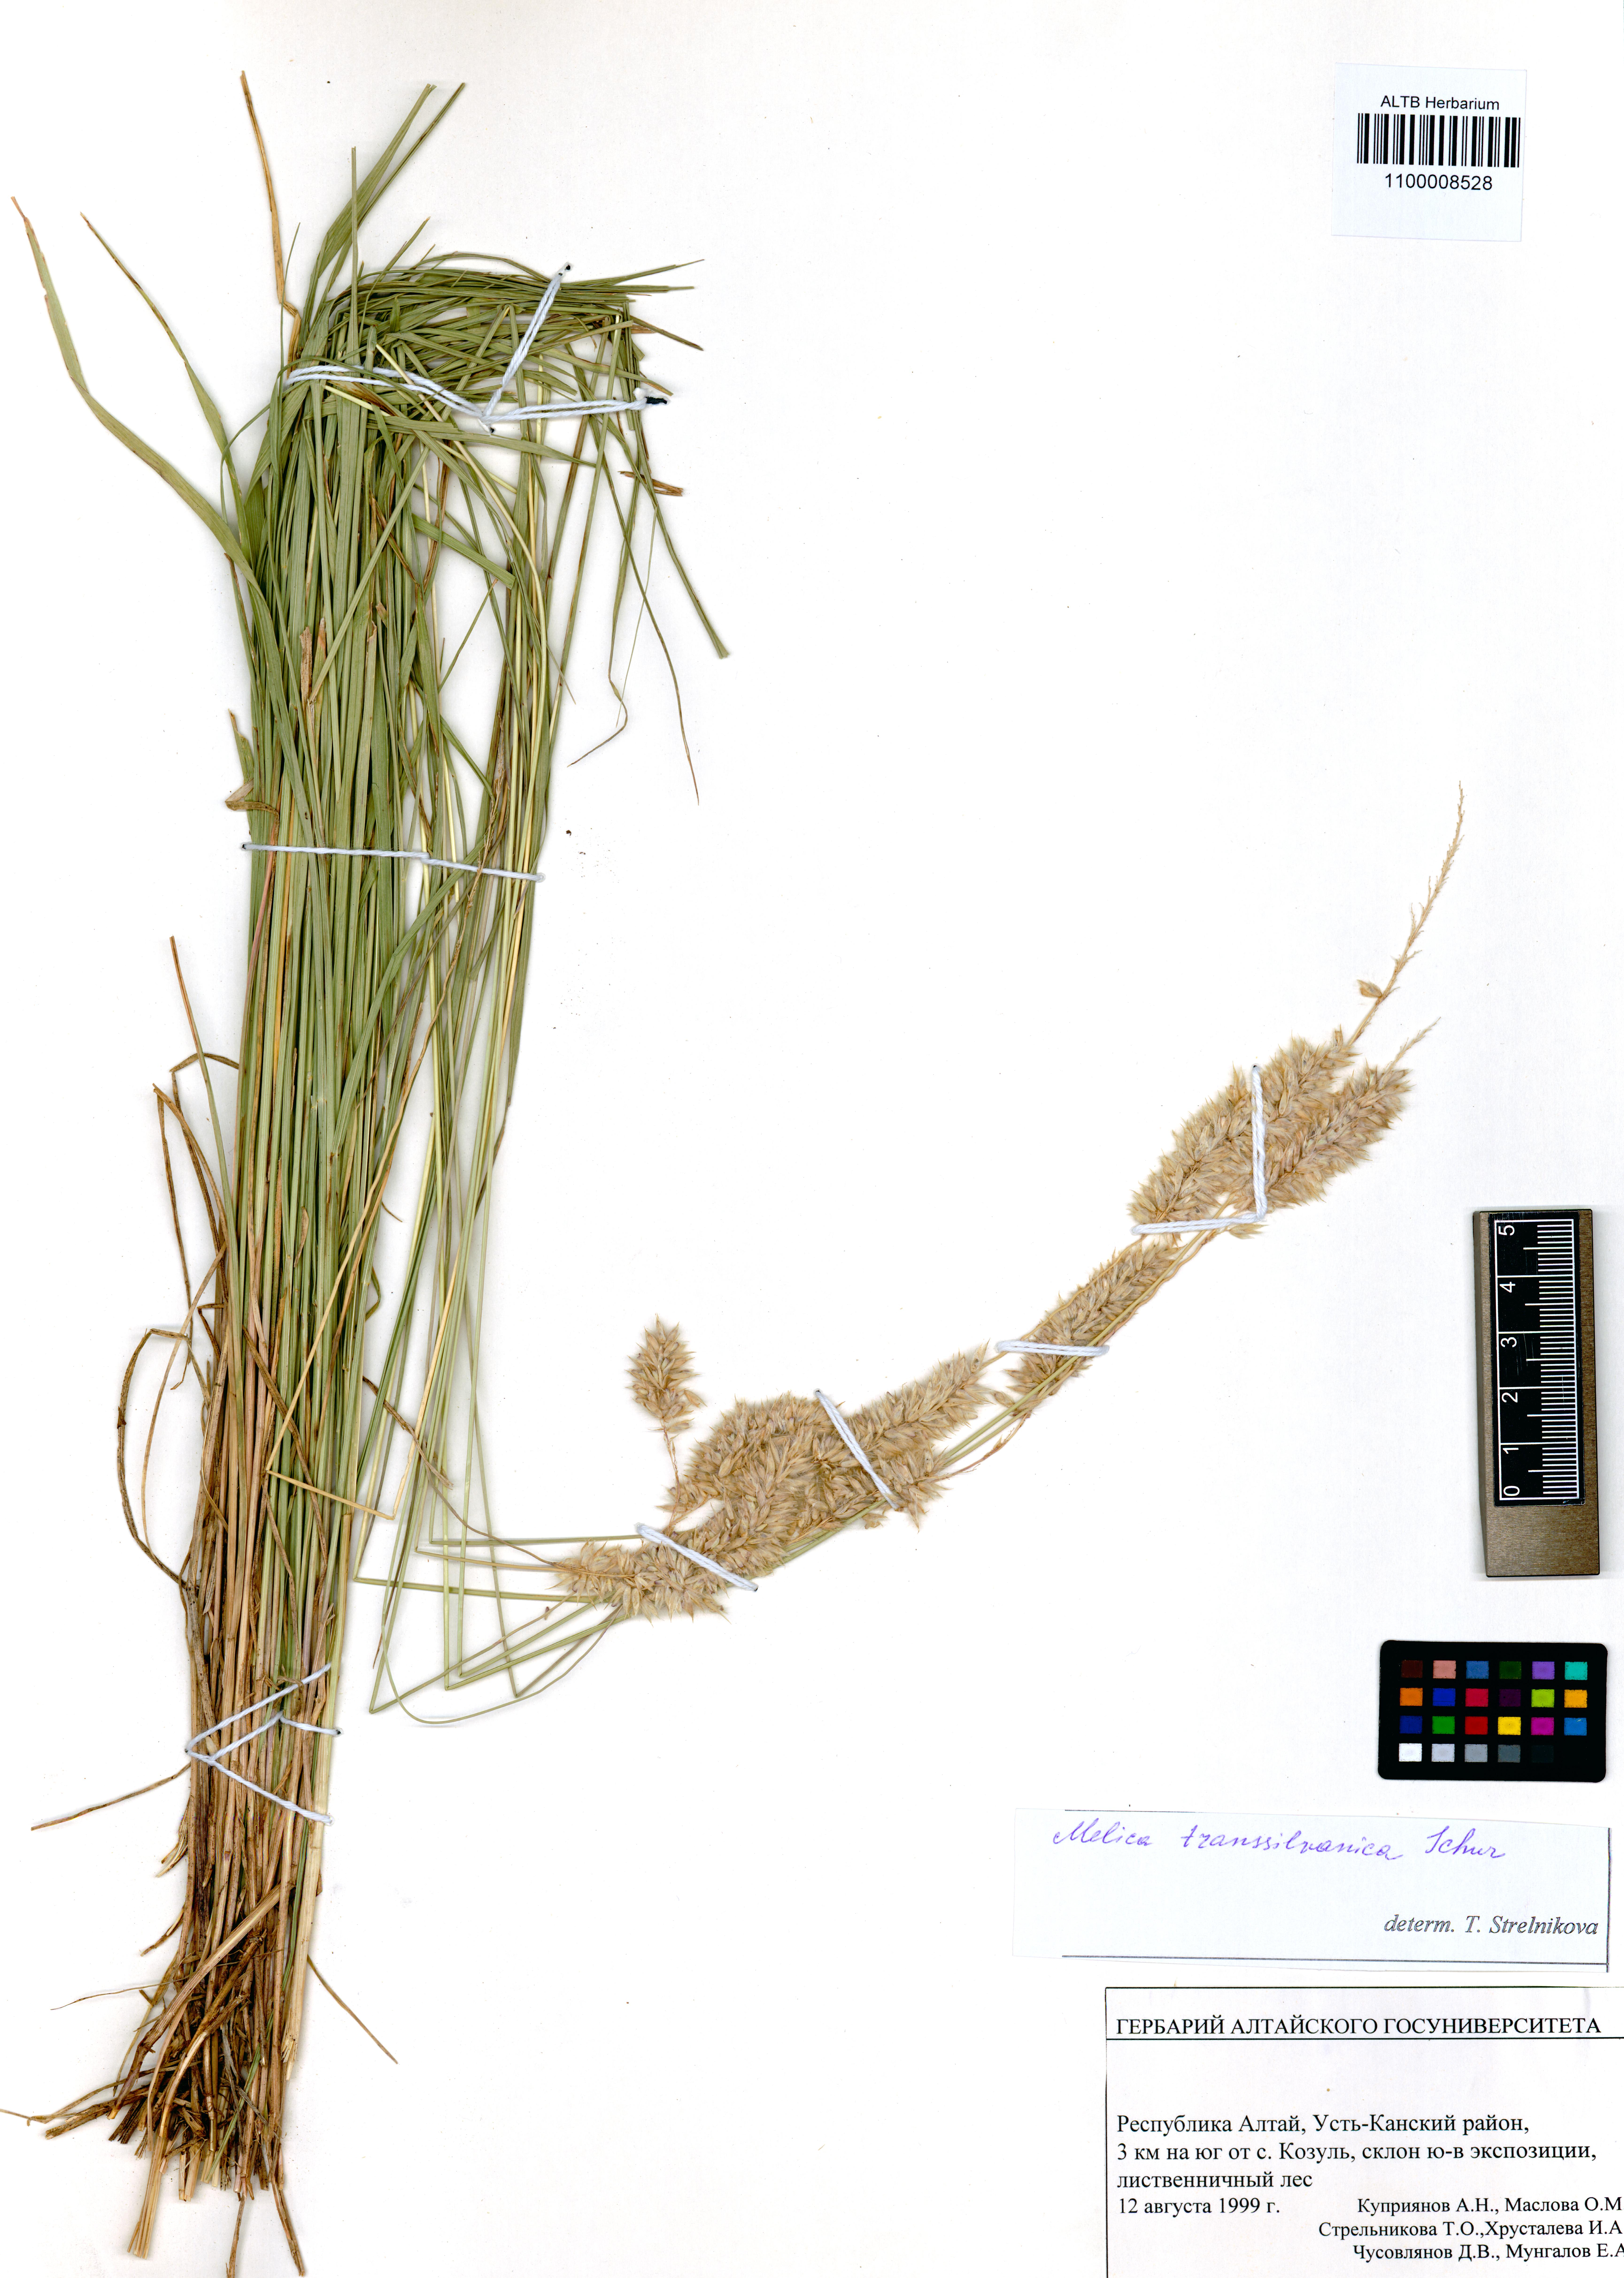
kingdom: Plantae
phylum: Tracheophyta
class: Liliopsida
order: Poales
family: Poaceae
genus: Melica
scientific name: Melica transsilvanica
